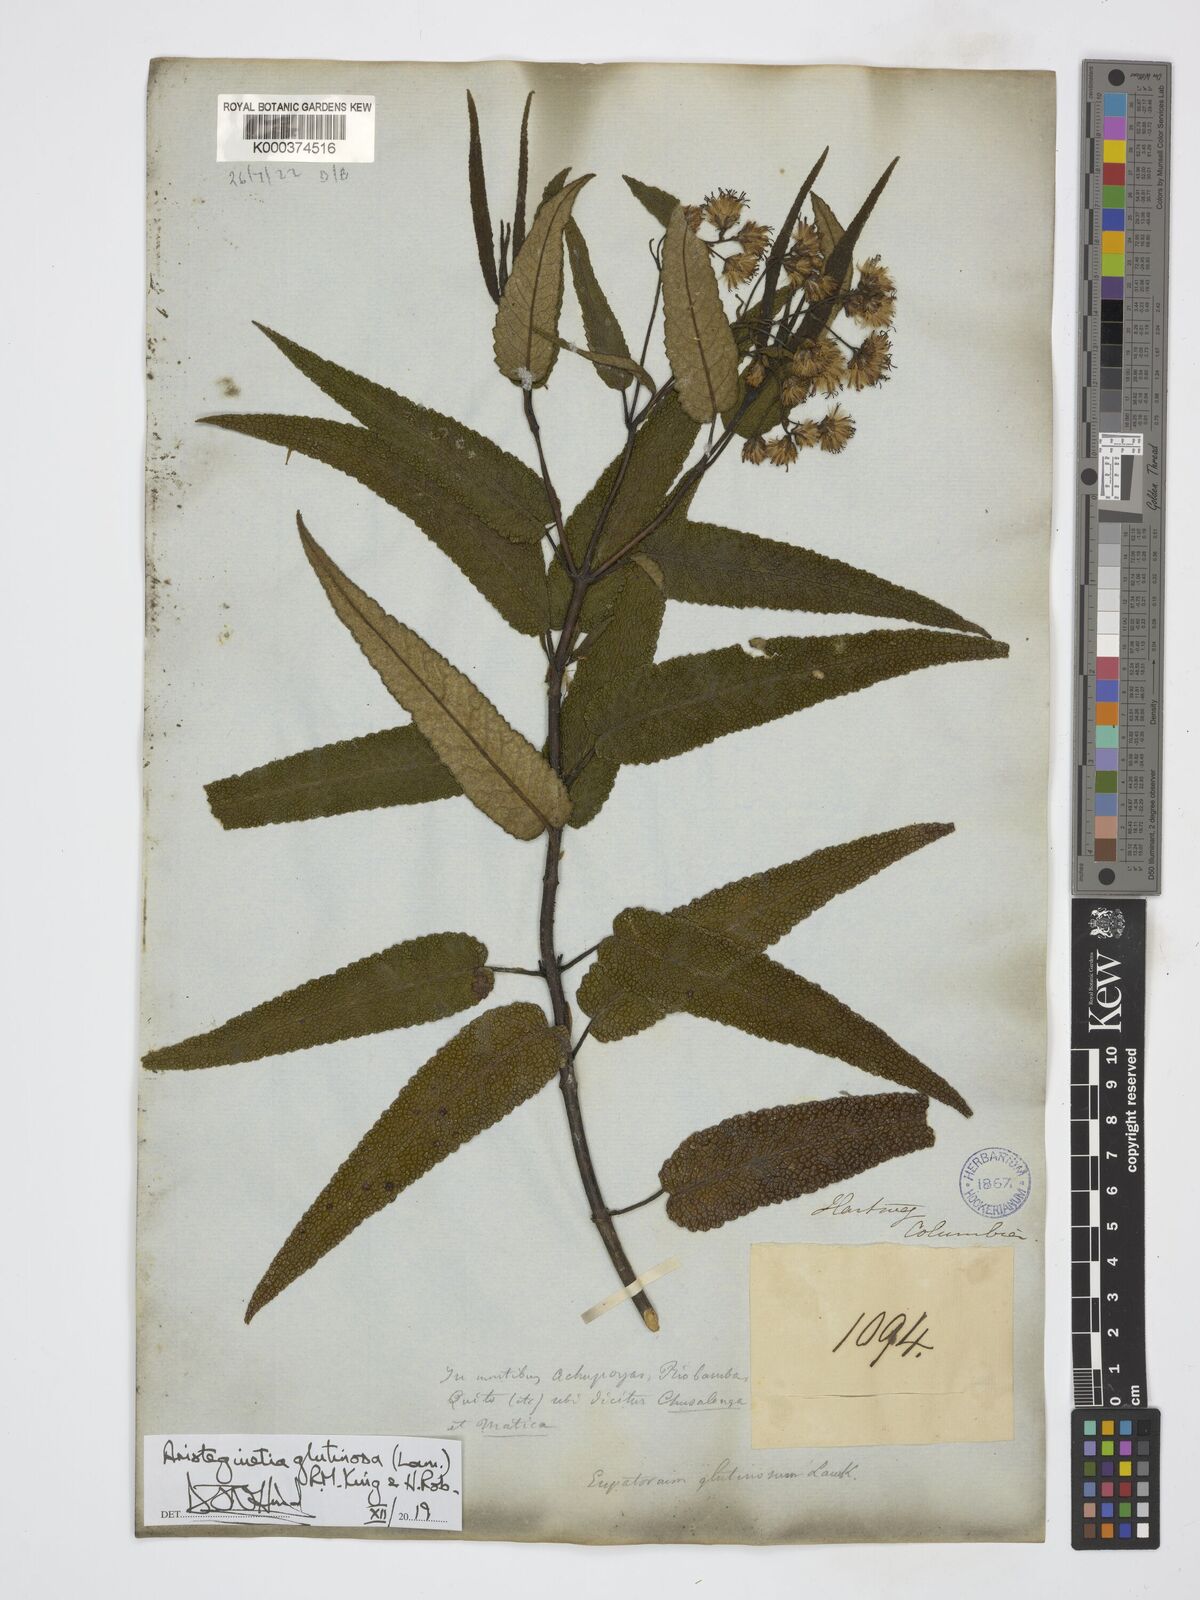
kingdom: Plantae
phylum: Tracheophyta
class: Magnoliopsida
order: Asterales
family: Asteraceae
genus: Aristeguietia
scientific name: Aristeguietia glutinosa
